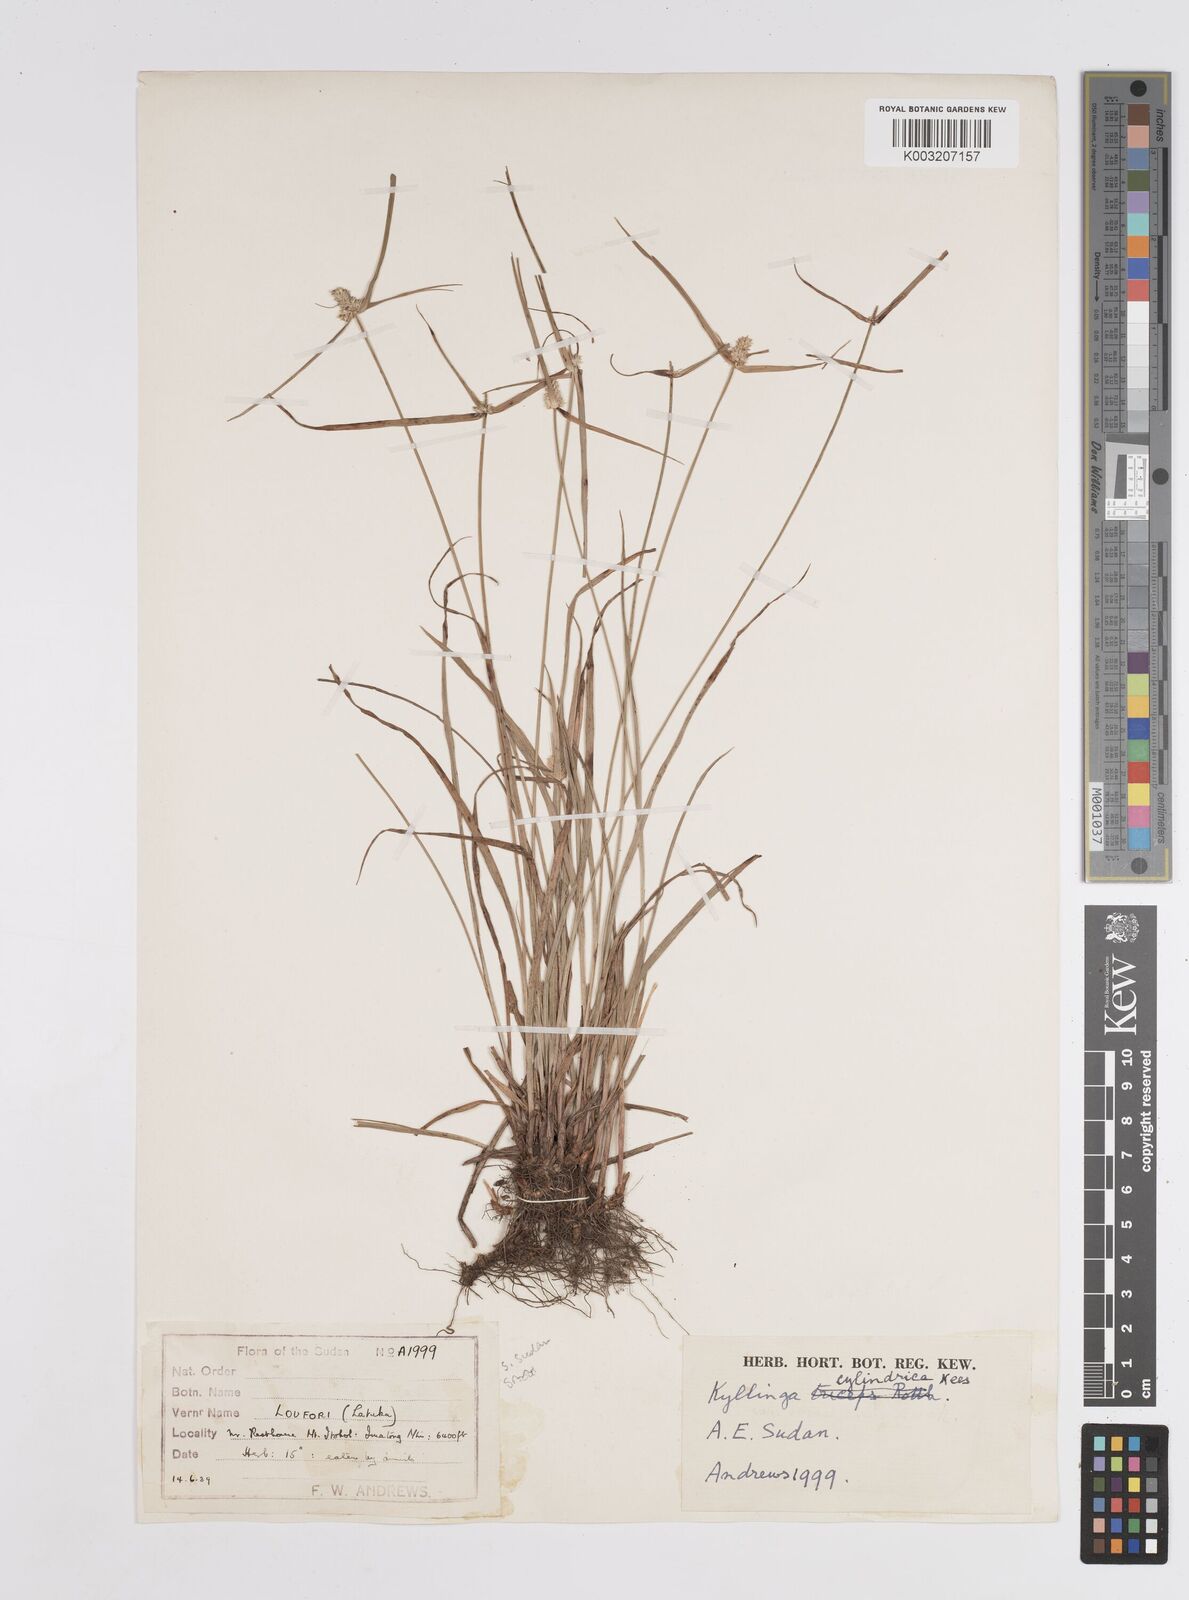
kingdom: Plantae
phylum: Tracheophyta
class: Liliopsida
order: Poales
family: Cyperaceae
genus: Cyperus
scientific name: Cyperus
